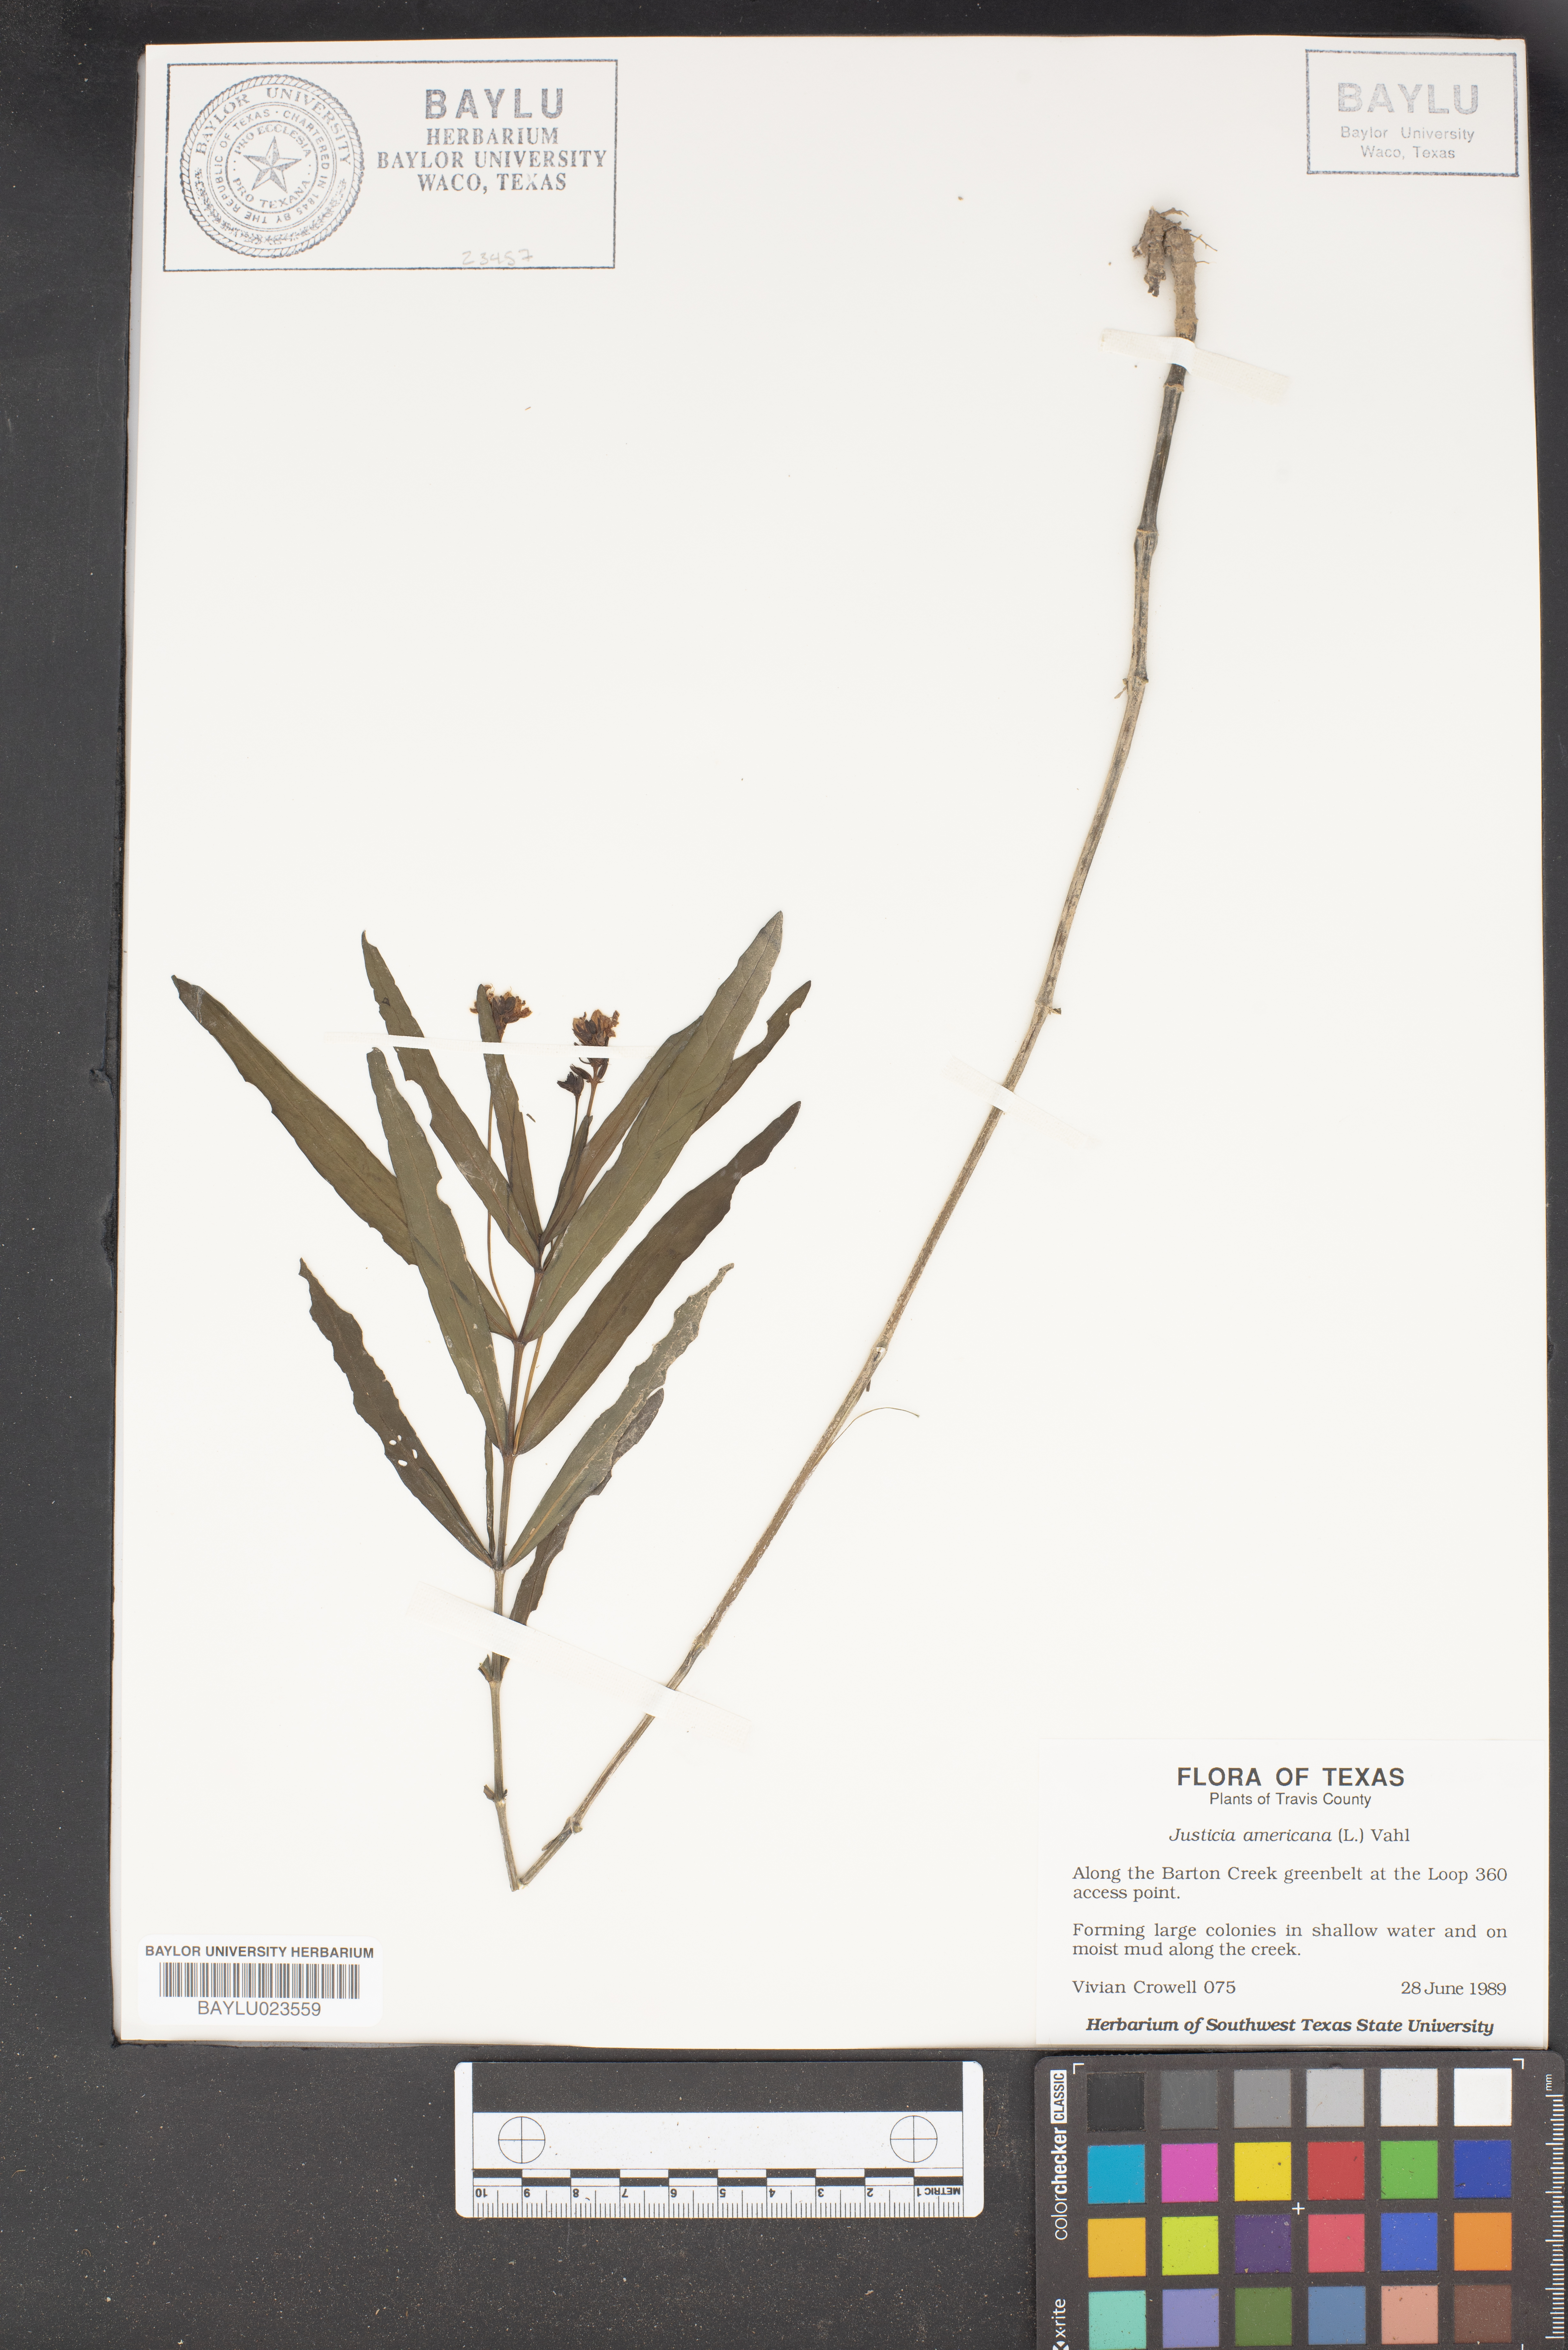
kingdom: Plantae
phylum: Tracheophyta
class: Magnoliopsida
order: Lamiales
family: Acanthaceae
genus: Dianthera
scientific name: Dianthera americana
